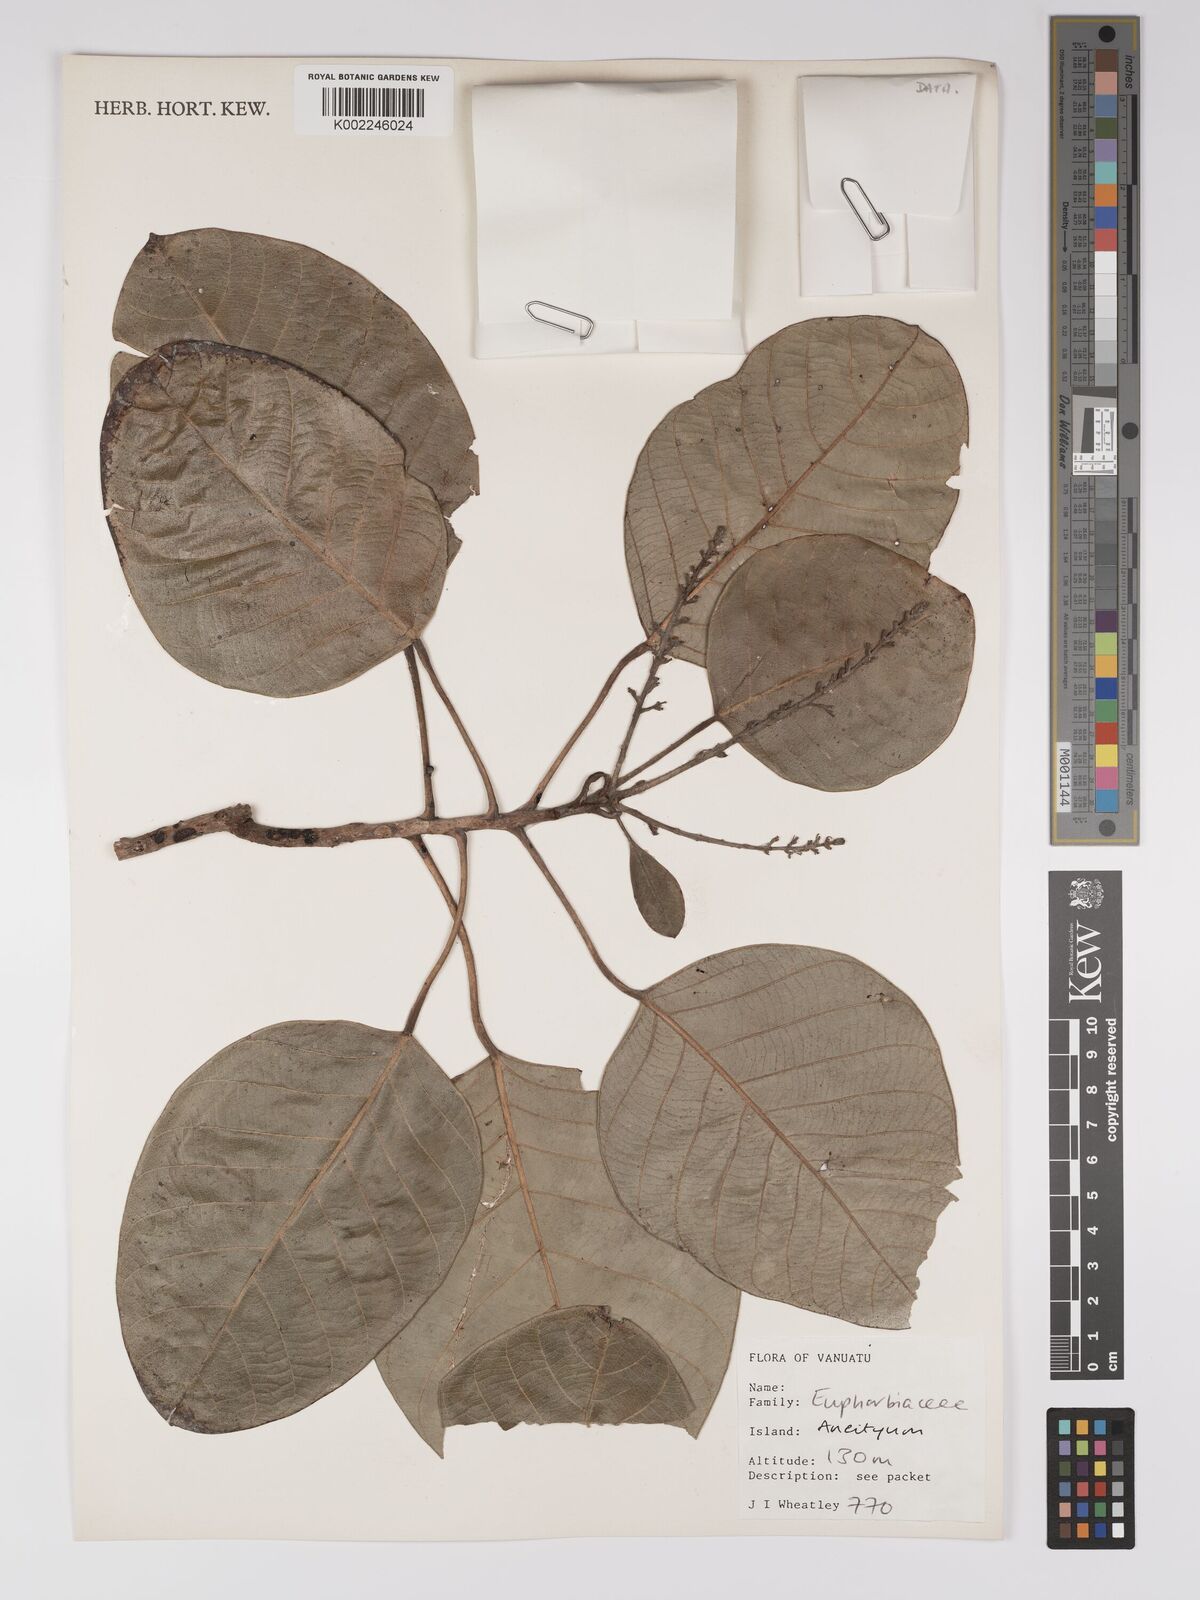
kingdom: Plantae
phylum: Tracheophyta
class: Magnoliopsida
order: Malpighiales
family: Euphorbiaceae
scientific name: Euphorbiaceae
